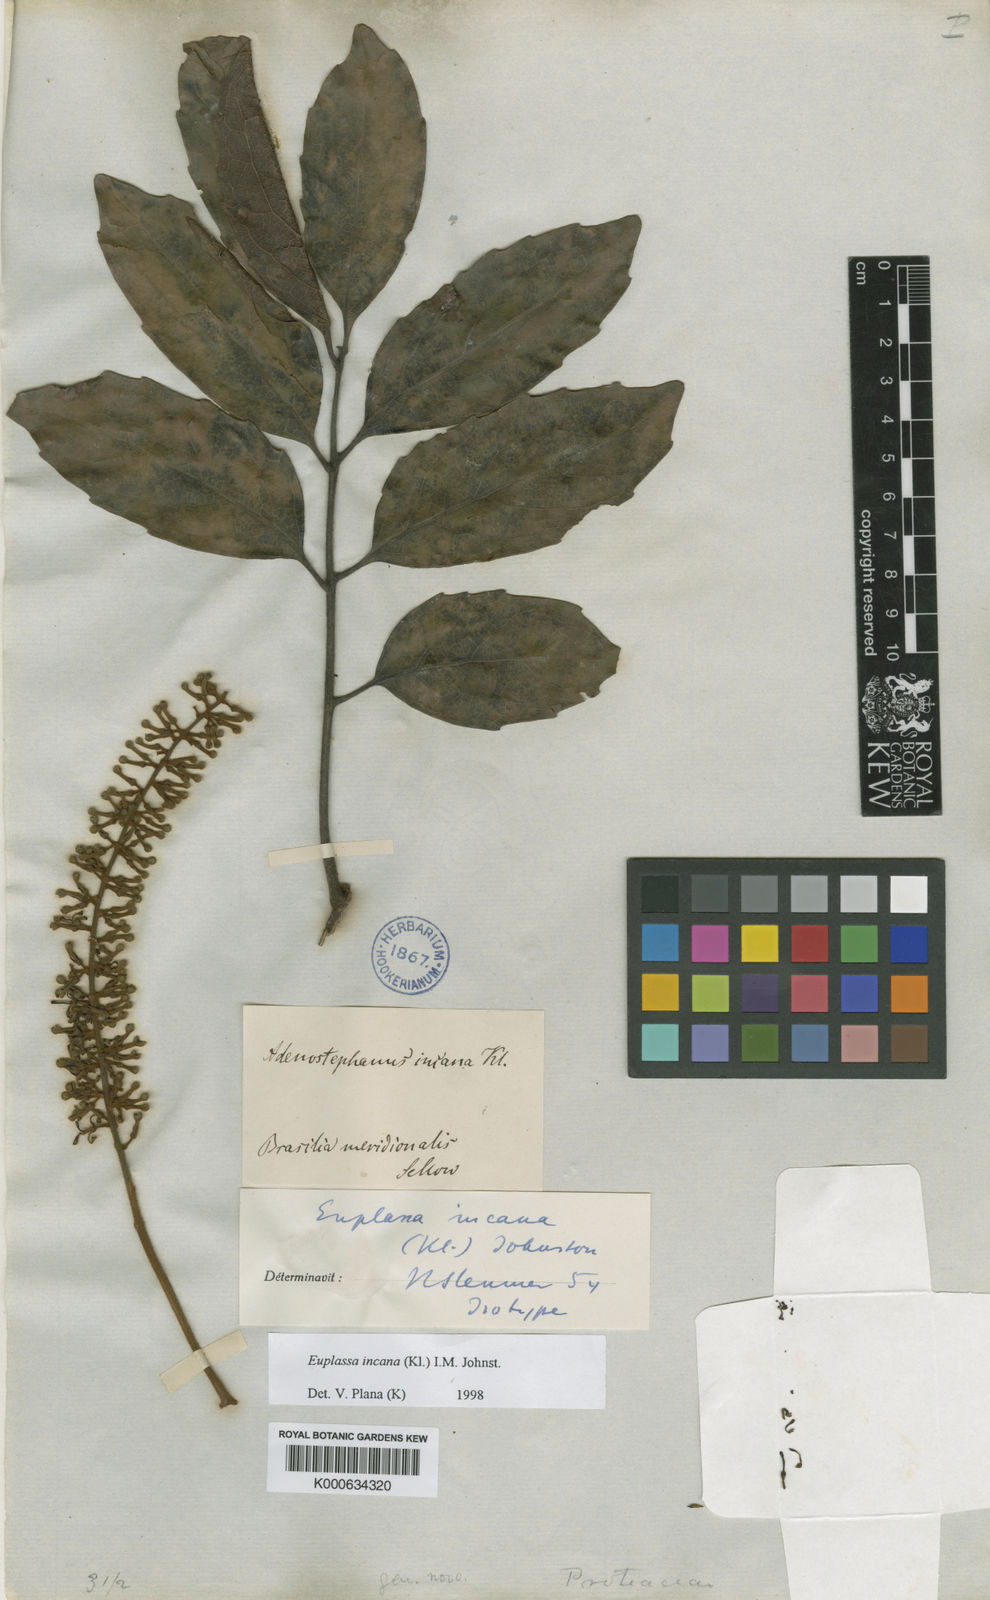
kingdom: Plantae
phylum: Tracheophyta
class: Magnoliopsida
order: Proteales
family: Proteaceae
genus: Euplassa
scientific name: Euplassa incana
